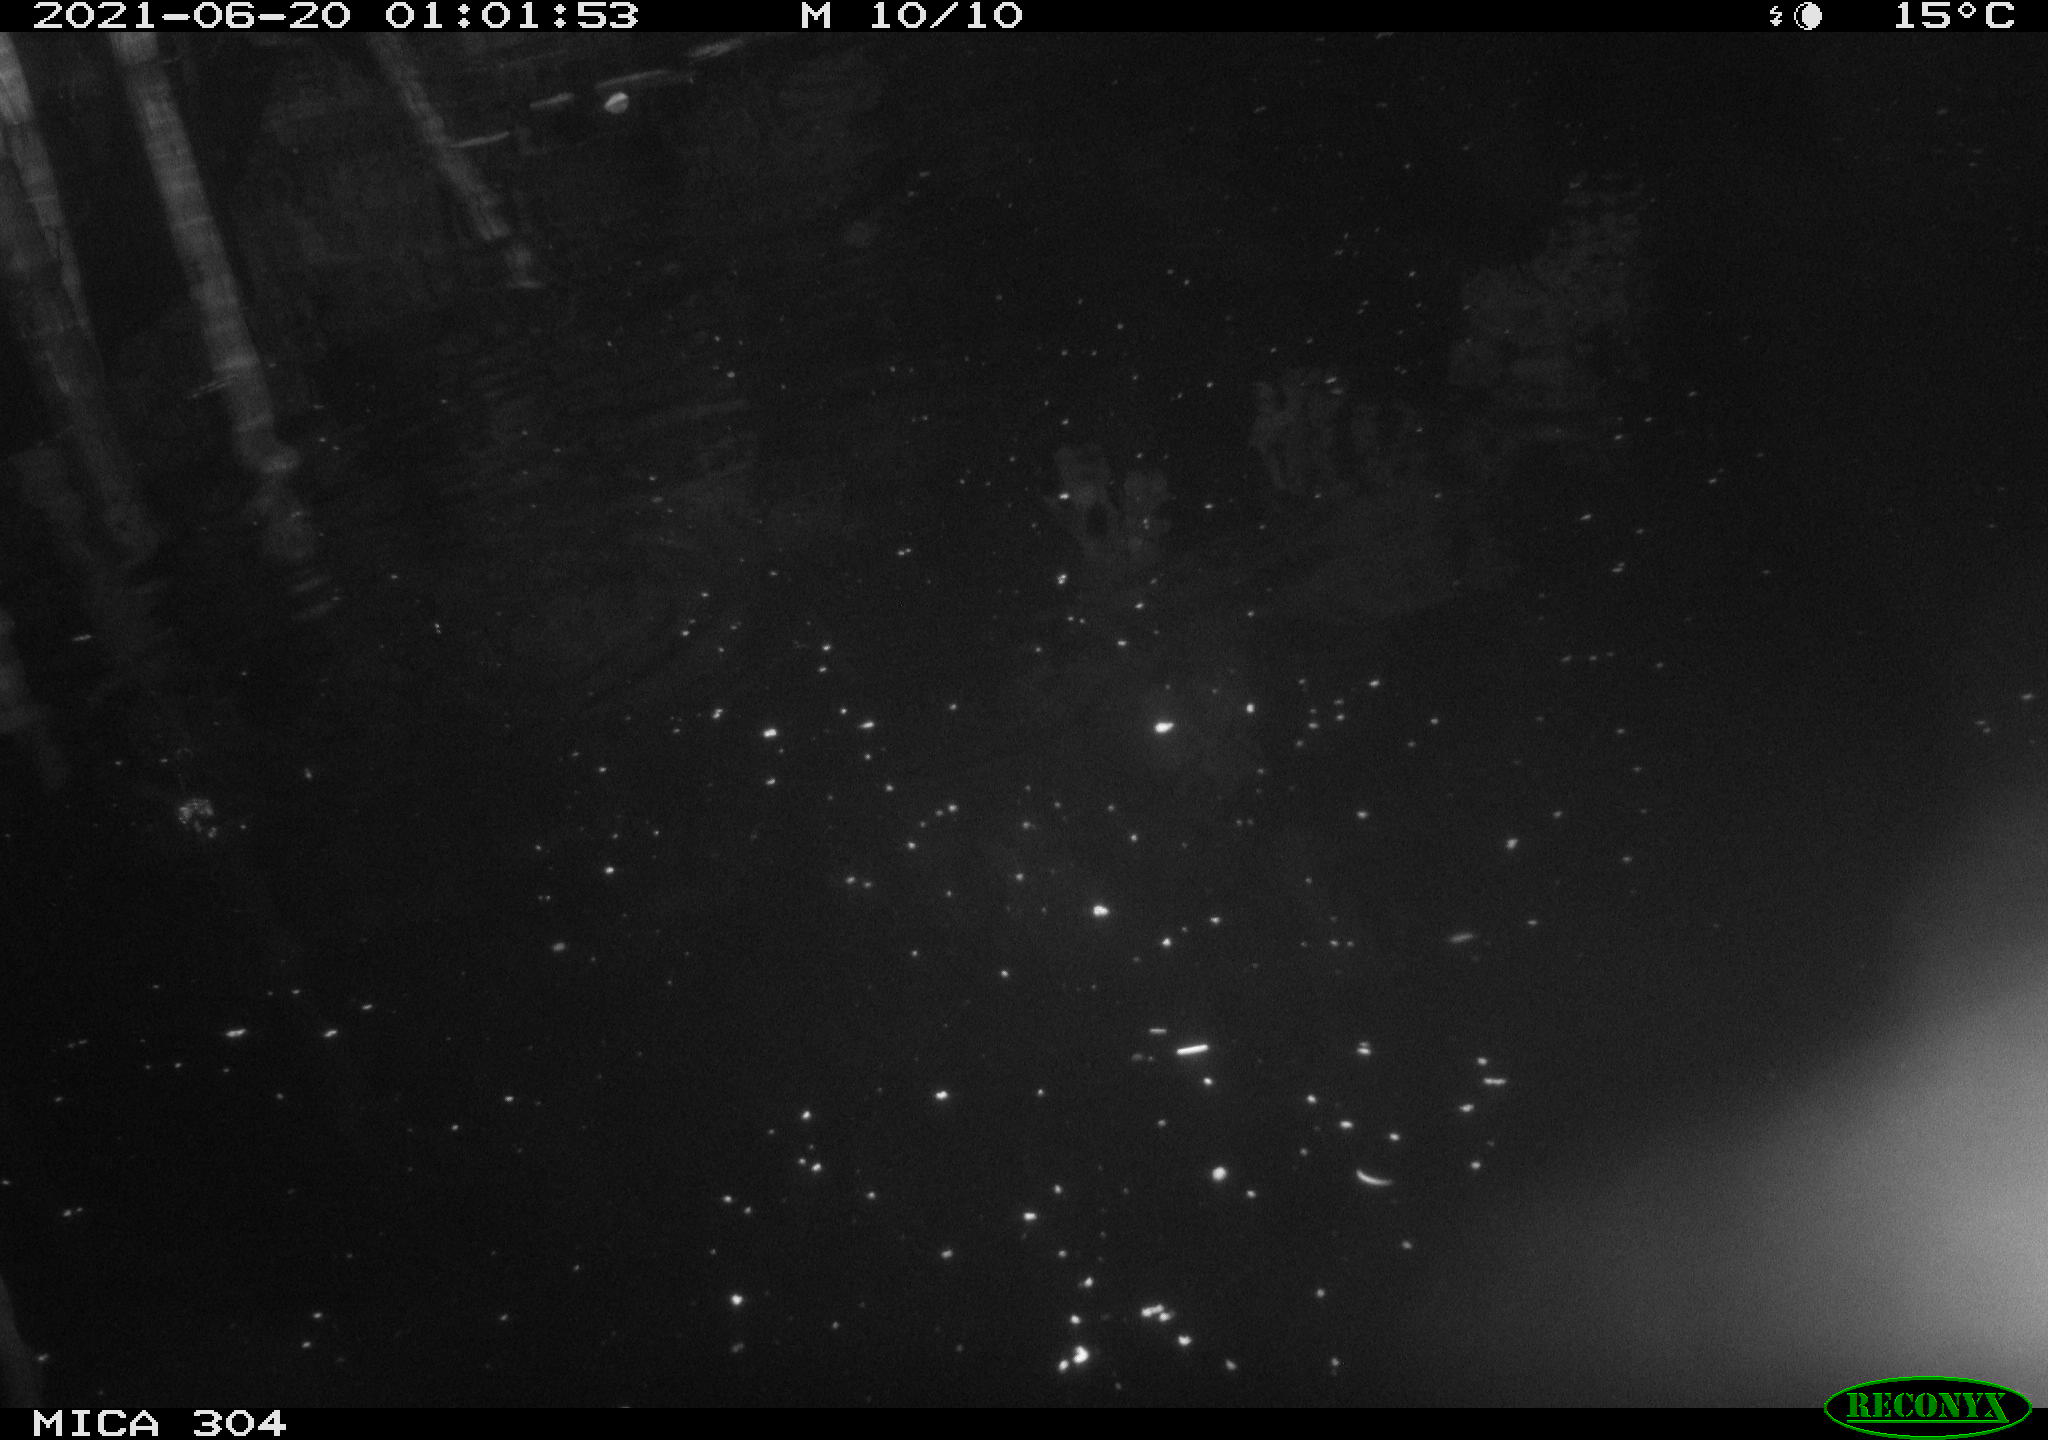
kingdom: Animalia
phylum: Chordata
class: Aves
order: Anseriformes
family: Anatidae
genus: Mareca
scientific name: Mareca strepera
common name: Gadwall
